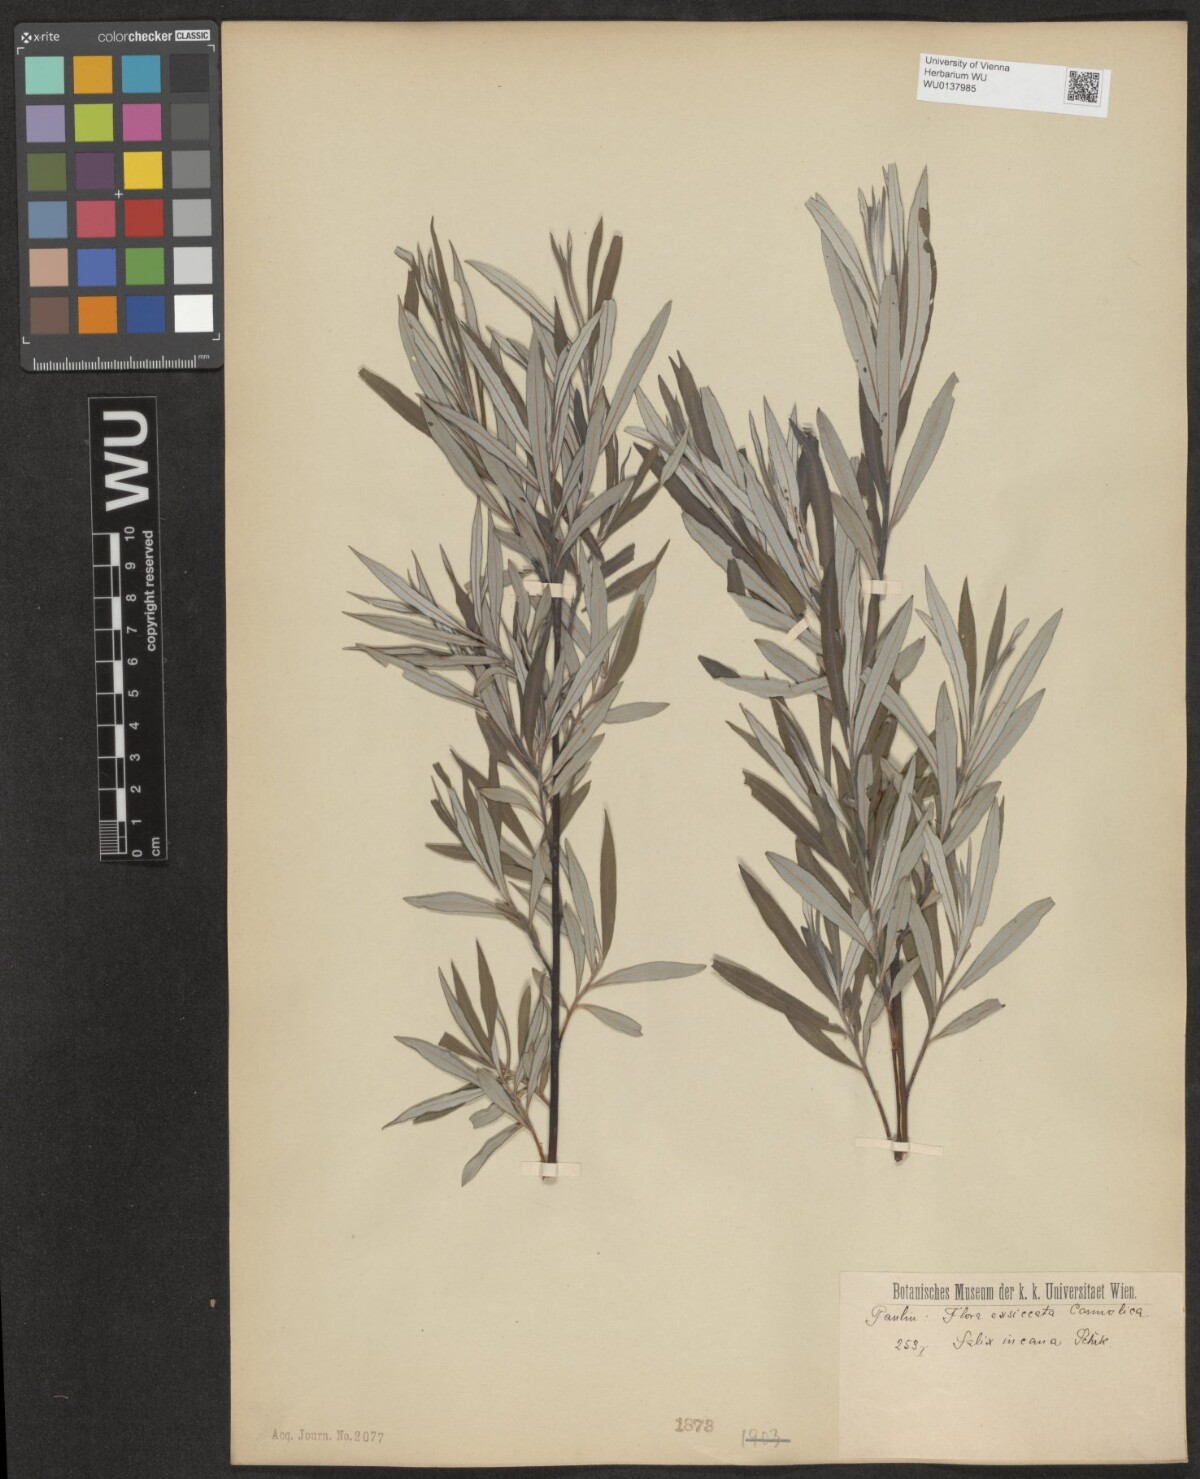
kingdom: Plantae
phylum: Tracheophyta
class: Magnoliopsida
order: Malpighiales
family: Salicaceae
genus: Salix
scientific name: Salix eleagnos
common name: Elaeagnus willow
